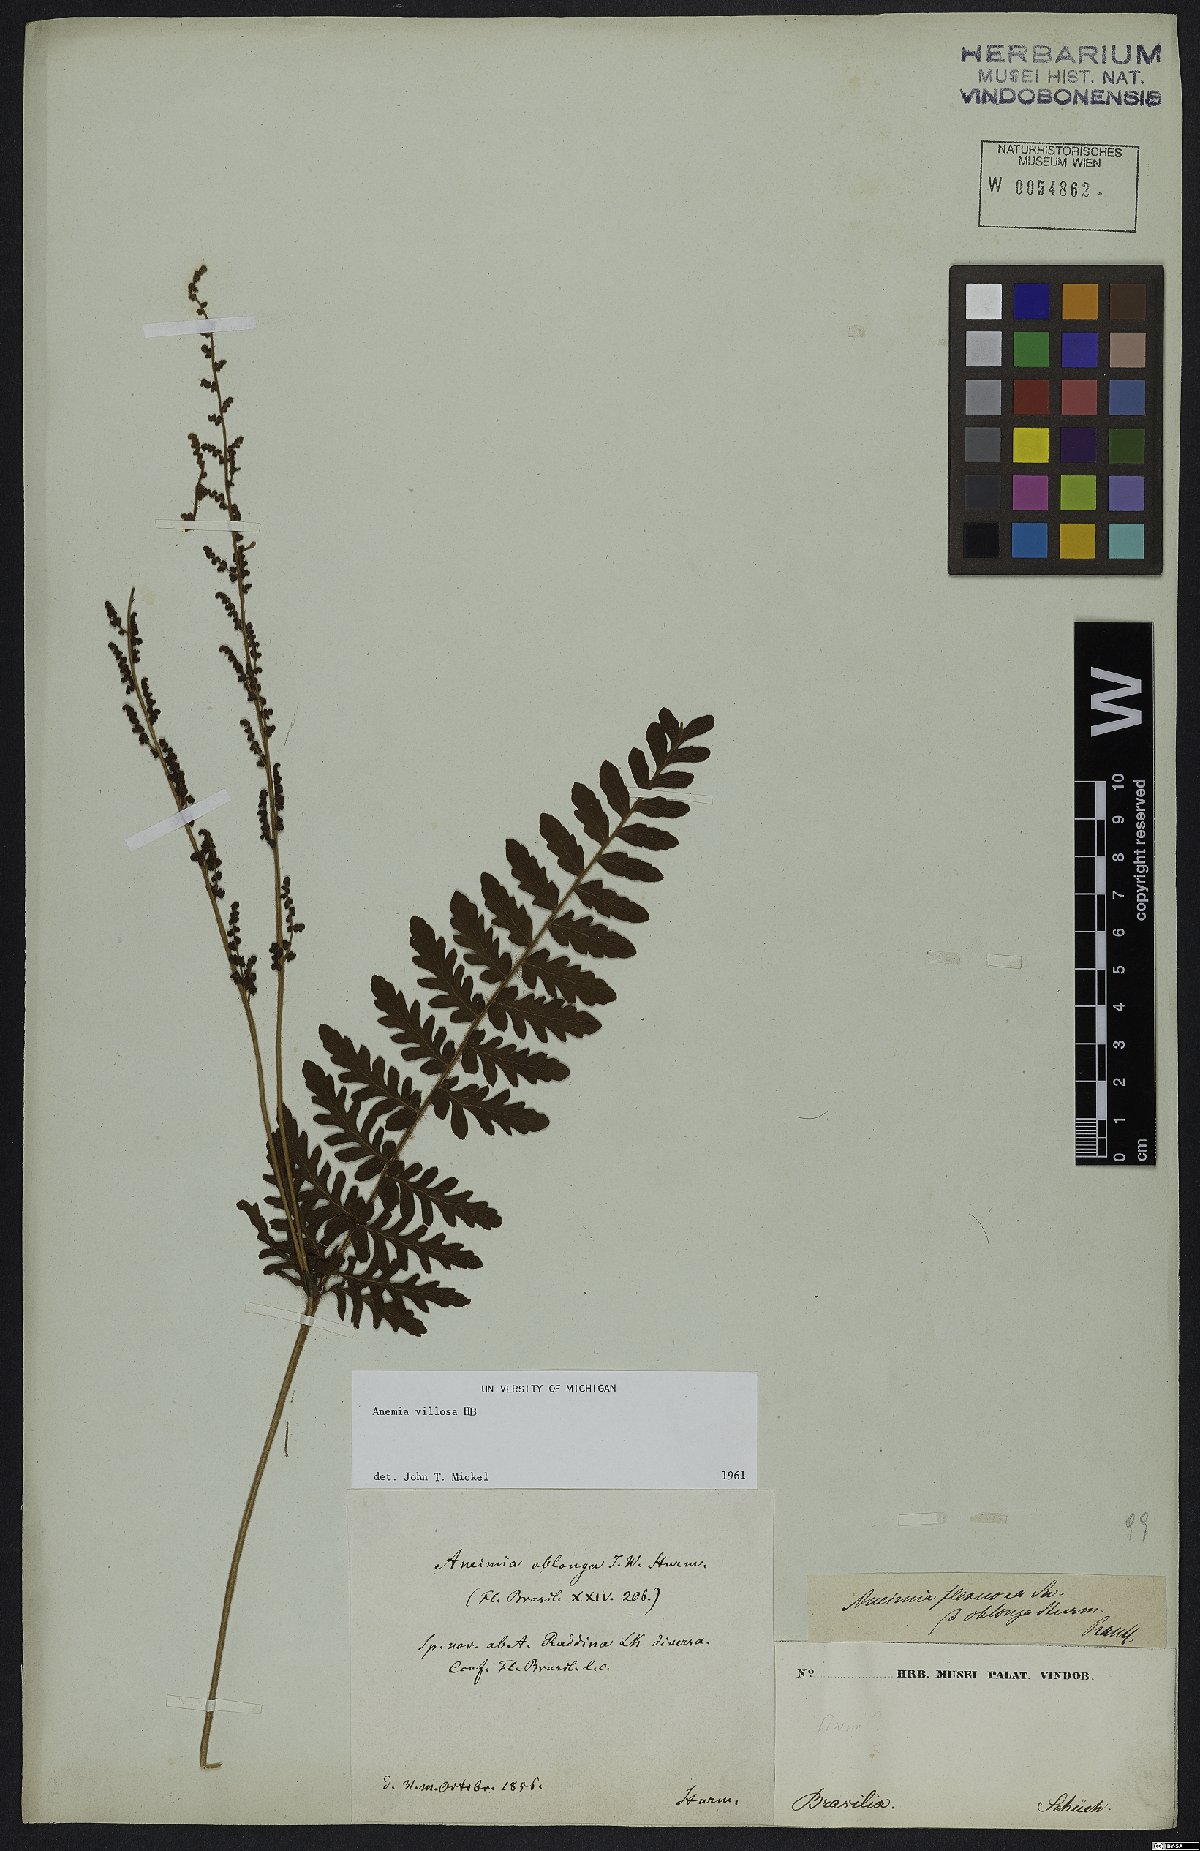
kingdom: Plantae
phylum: Tracheophyta
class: Polypodiopsida
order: Schizaeales
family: Anemiaceae
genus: Anemia
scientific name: Anemia villosa
